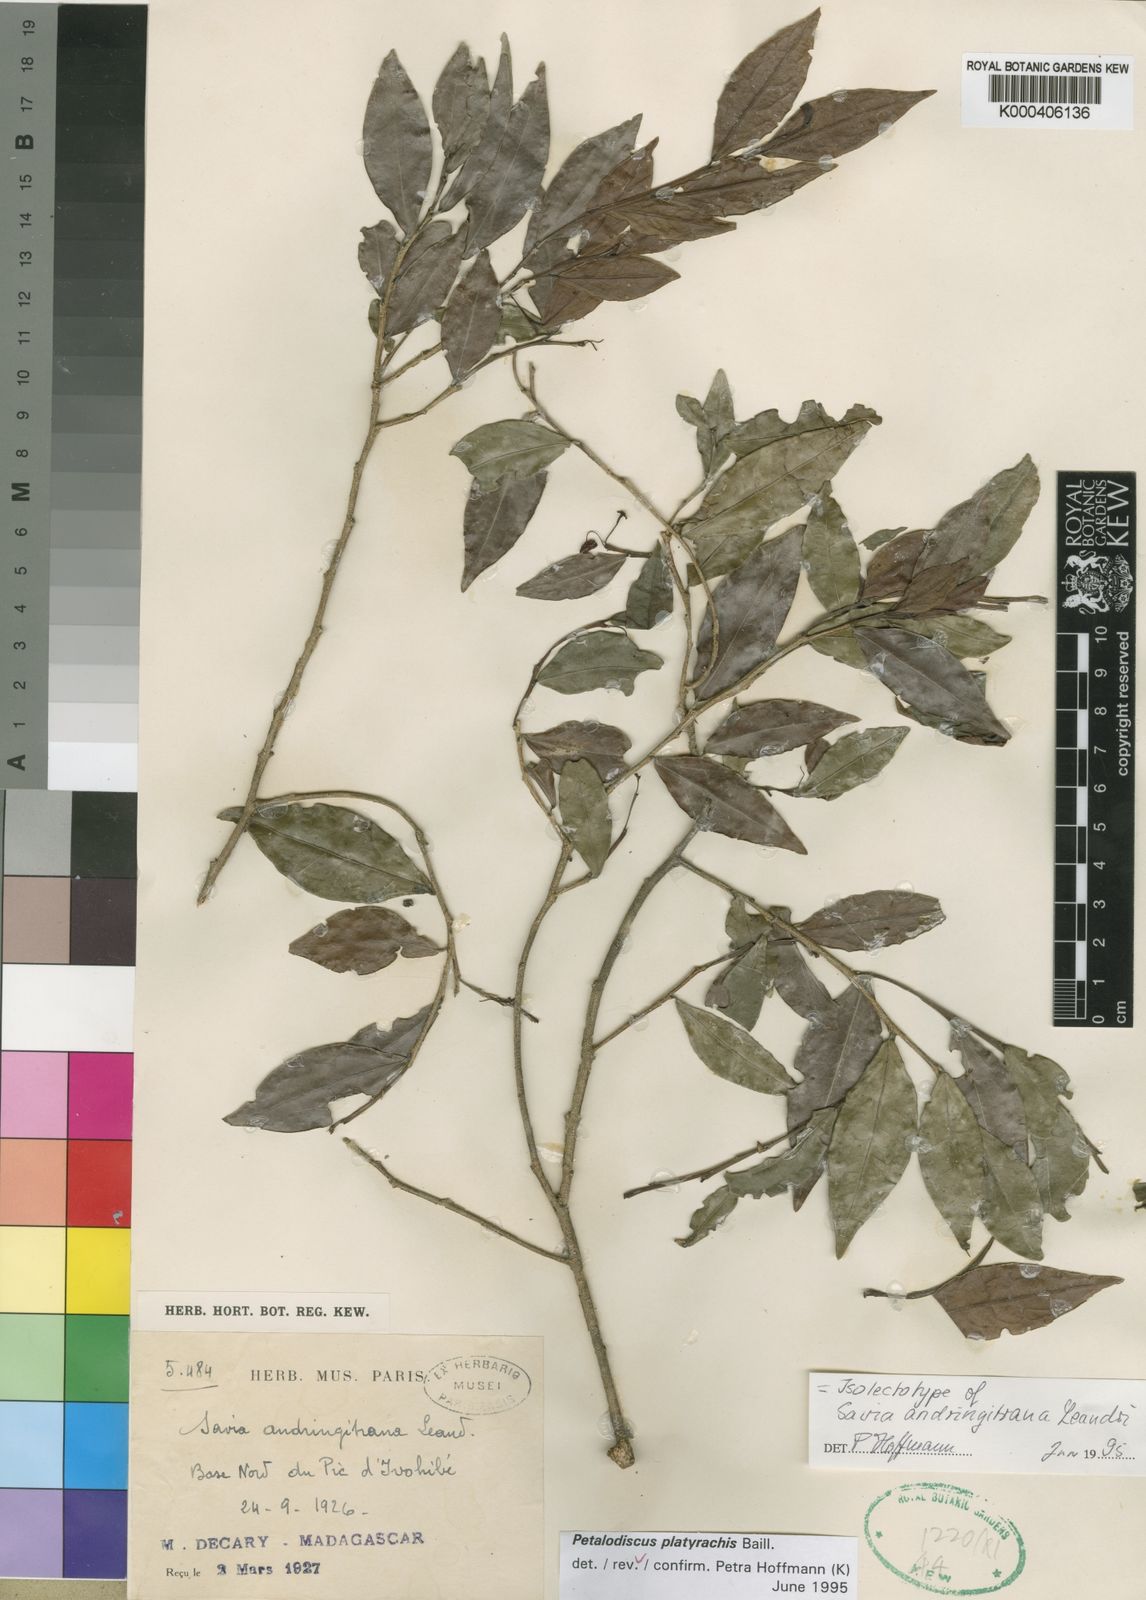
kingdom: Plantae
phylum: Tracheophyta
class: Magnoliopsida
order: Malpighiales
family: Phyllanthaceae
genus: Wielandia
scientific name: Wielandia
